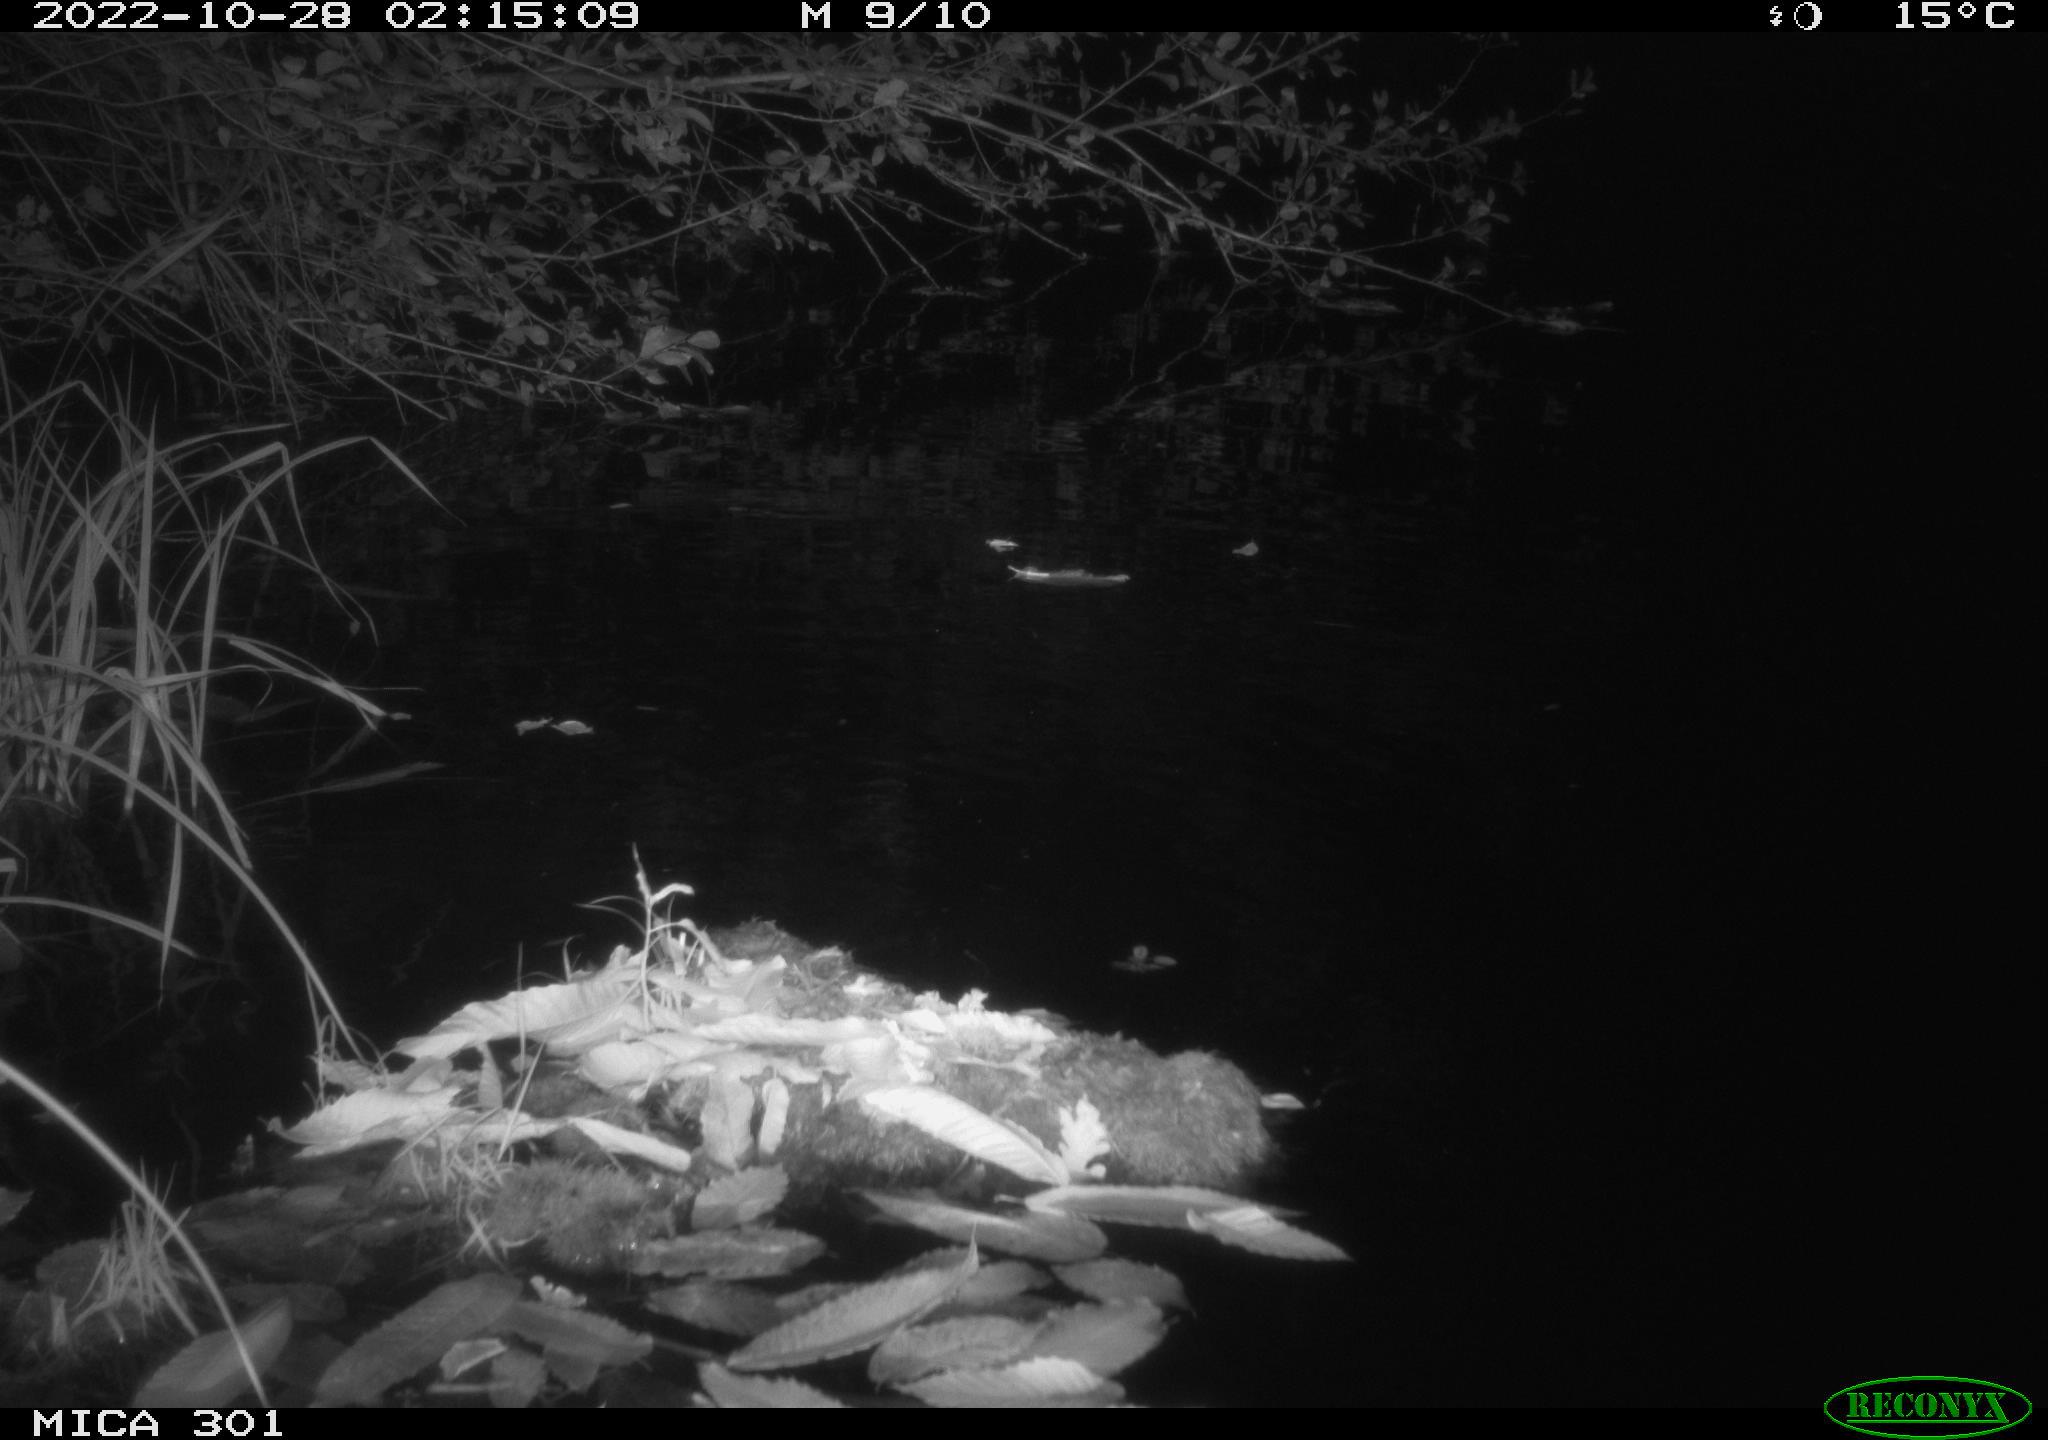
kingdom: Animalia
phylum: Chordata
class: Mammalia
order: Rodentia
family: Castoridae
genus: Castor
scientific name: Castor fiber
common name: Eurasian beaver
